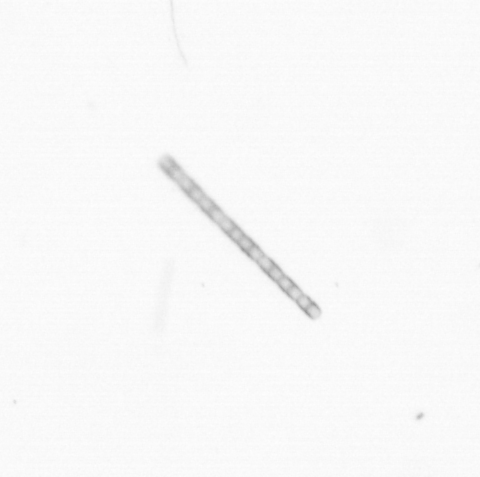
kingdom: Chromista
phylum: Ochrophyta
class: Bacillariophyceae
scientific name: Bacillariophyceae
